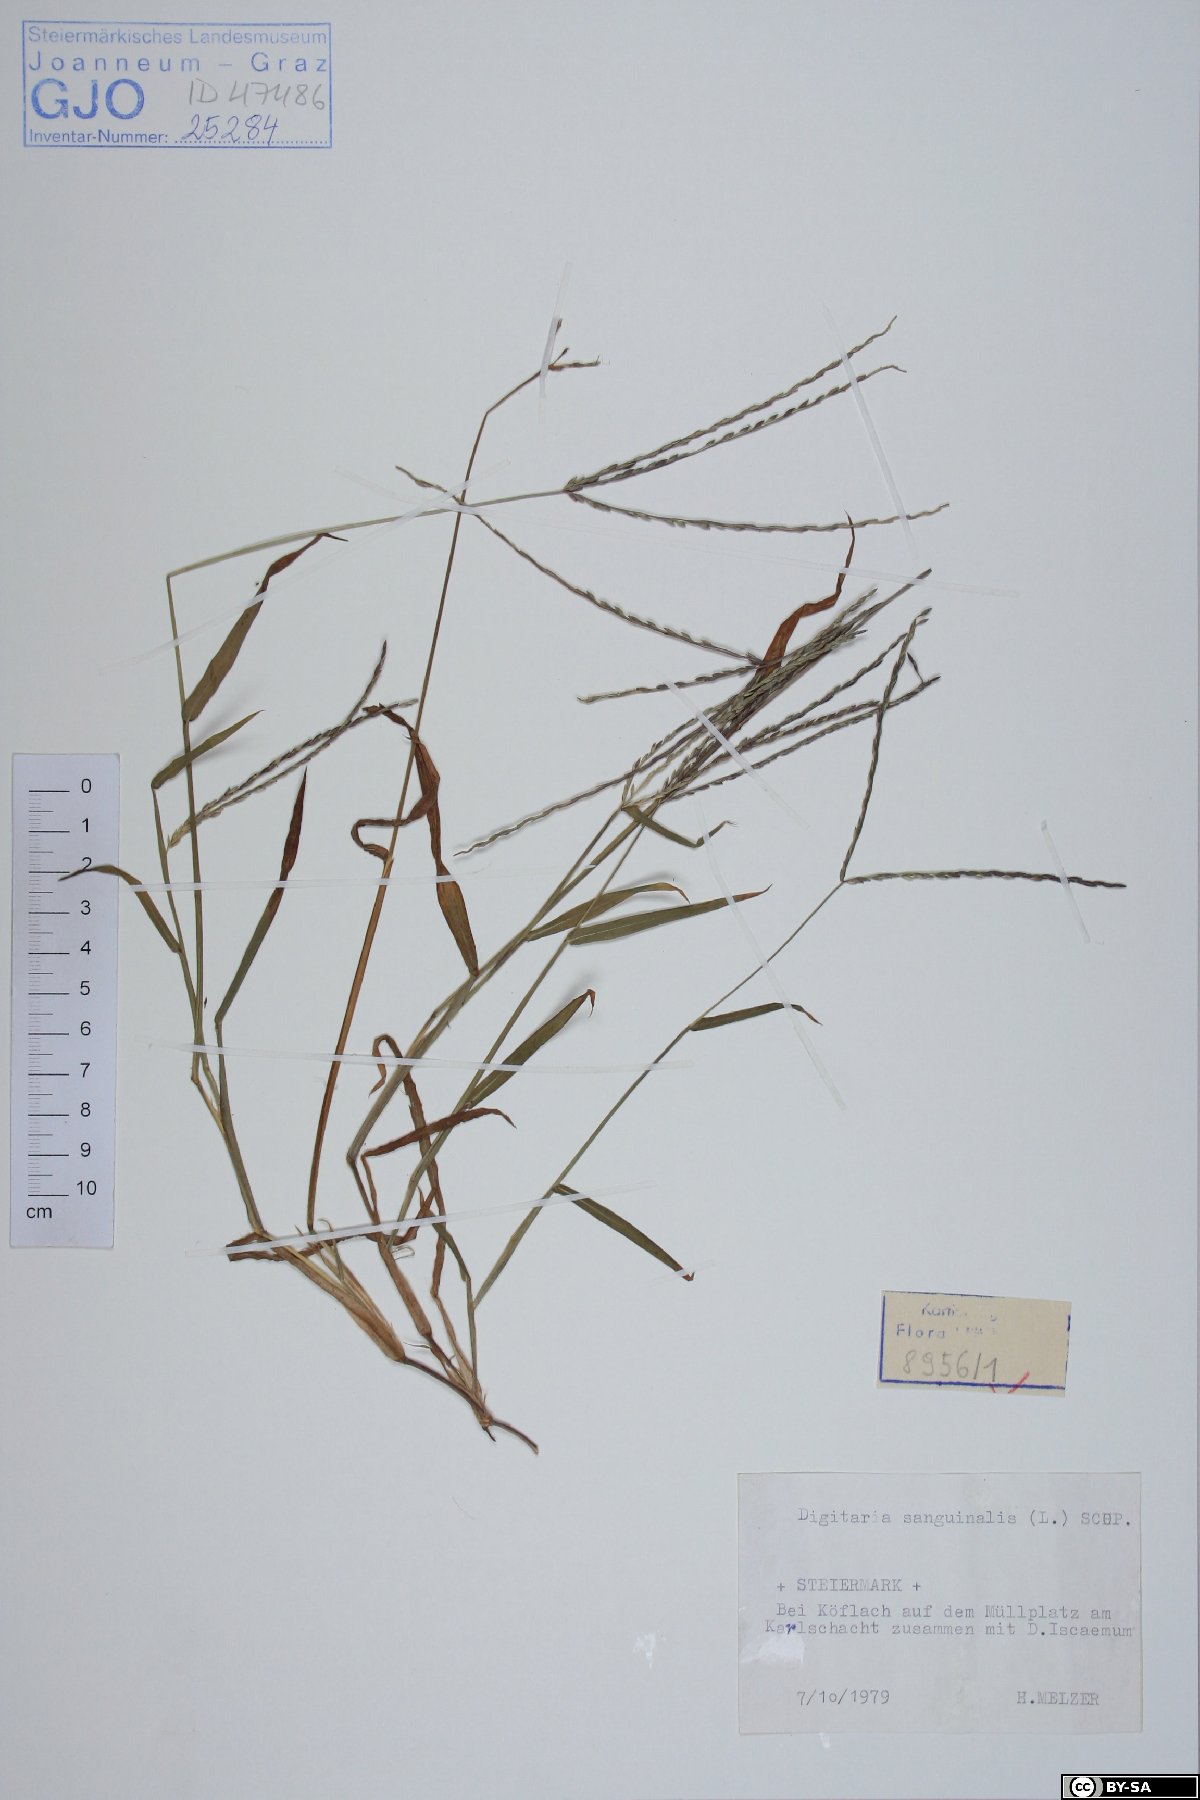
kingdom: Plantae
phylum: Tracheophyta
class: Liliopsida
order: Poales
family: Poaceae
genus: Digitaria
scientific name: Digitaria sanguinalis
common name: Hairy crabgrass
